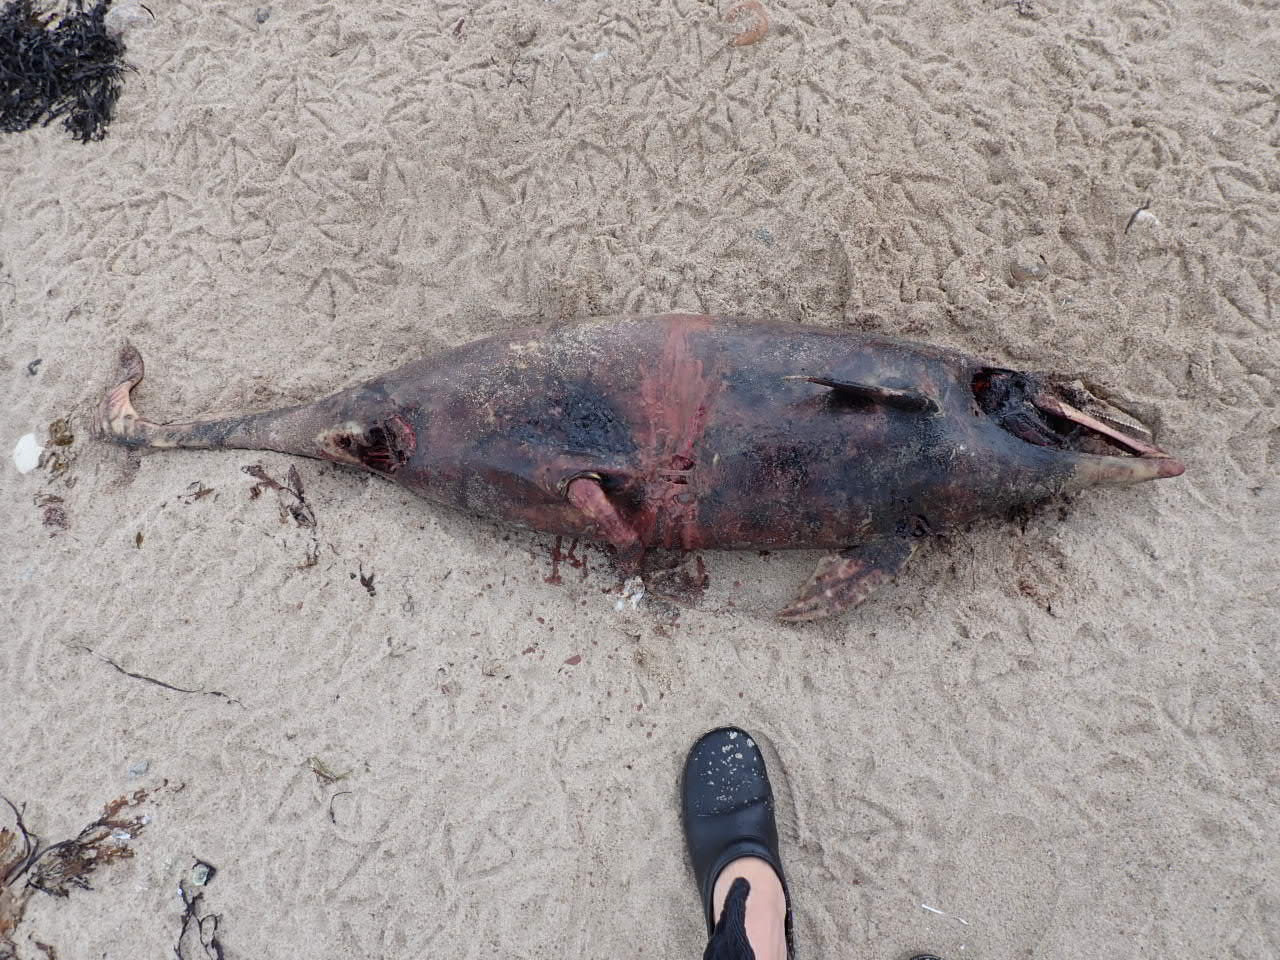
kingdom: Animalia
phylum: Chordata
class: Mammalia
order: Cetacea
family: Phocoenidae
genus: Phocoena
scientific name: Phocoena phocoena
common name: Marsvin
